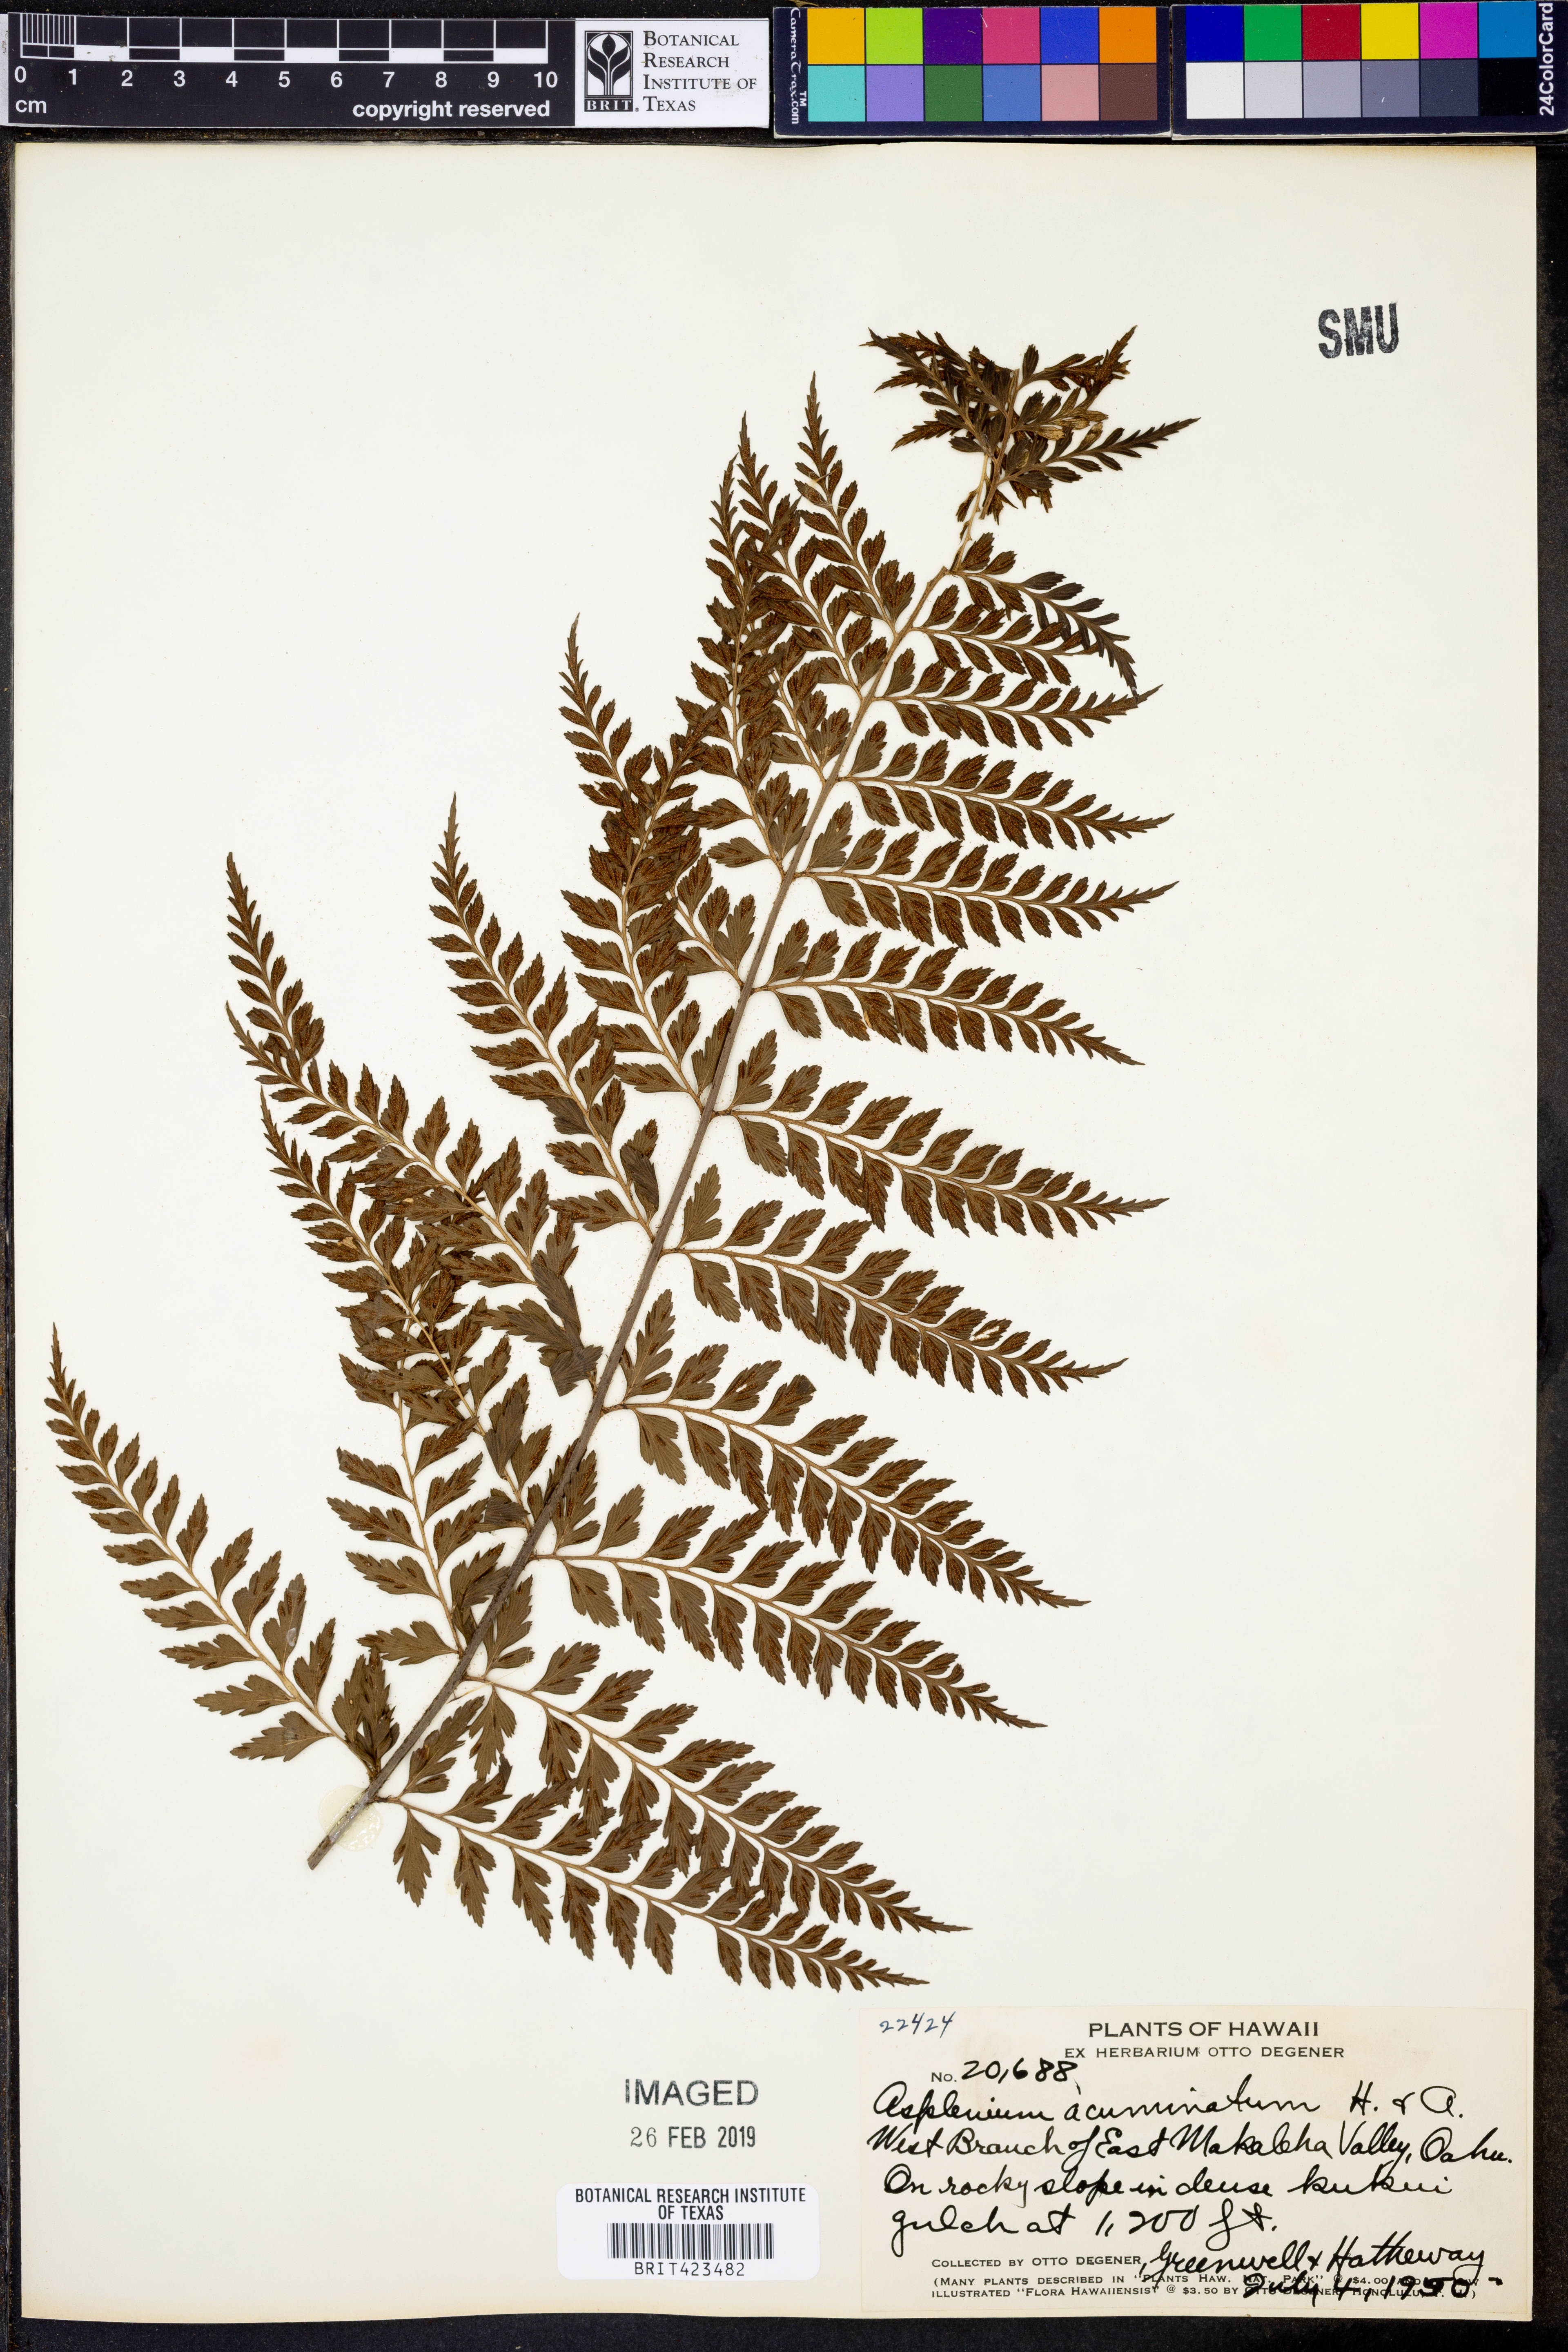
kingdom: Plantae
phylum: Tracheophyta
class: Polypodiopsida
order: Polypodiales
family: Aspleniaceae
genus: Asplenium
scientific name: Asplenium acuminatum
